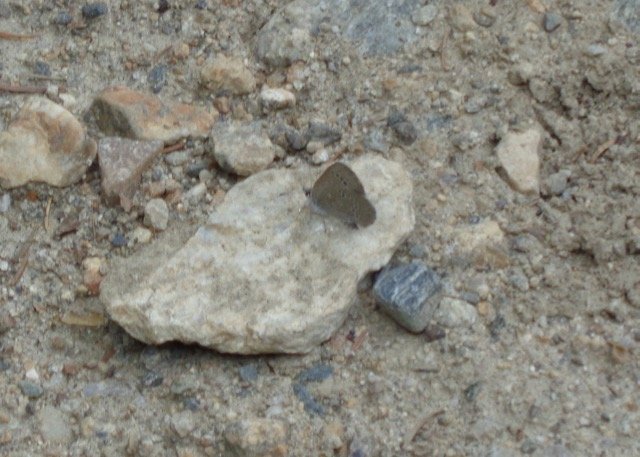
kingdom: Animalia
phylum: Arthropoda
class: Insecta
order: Lepidoptera
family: Lycaenidae
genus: Glaucopsyche
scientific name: Glaucopsyche lygdamus
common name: Silvery Blue
